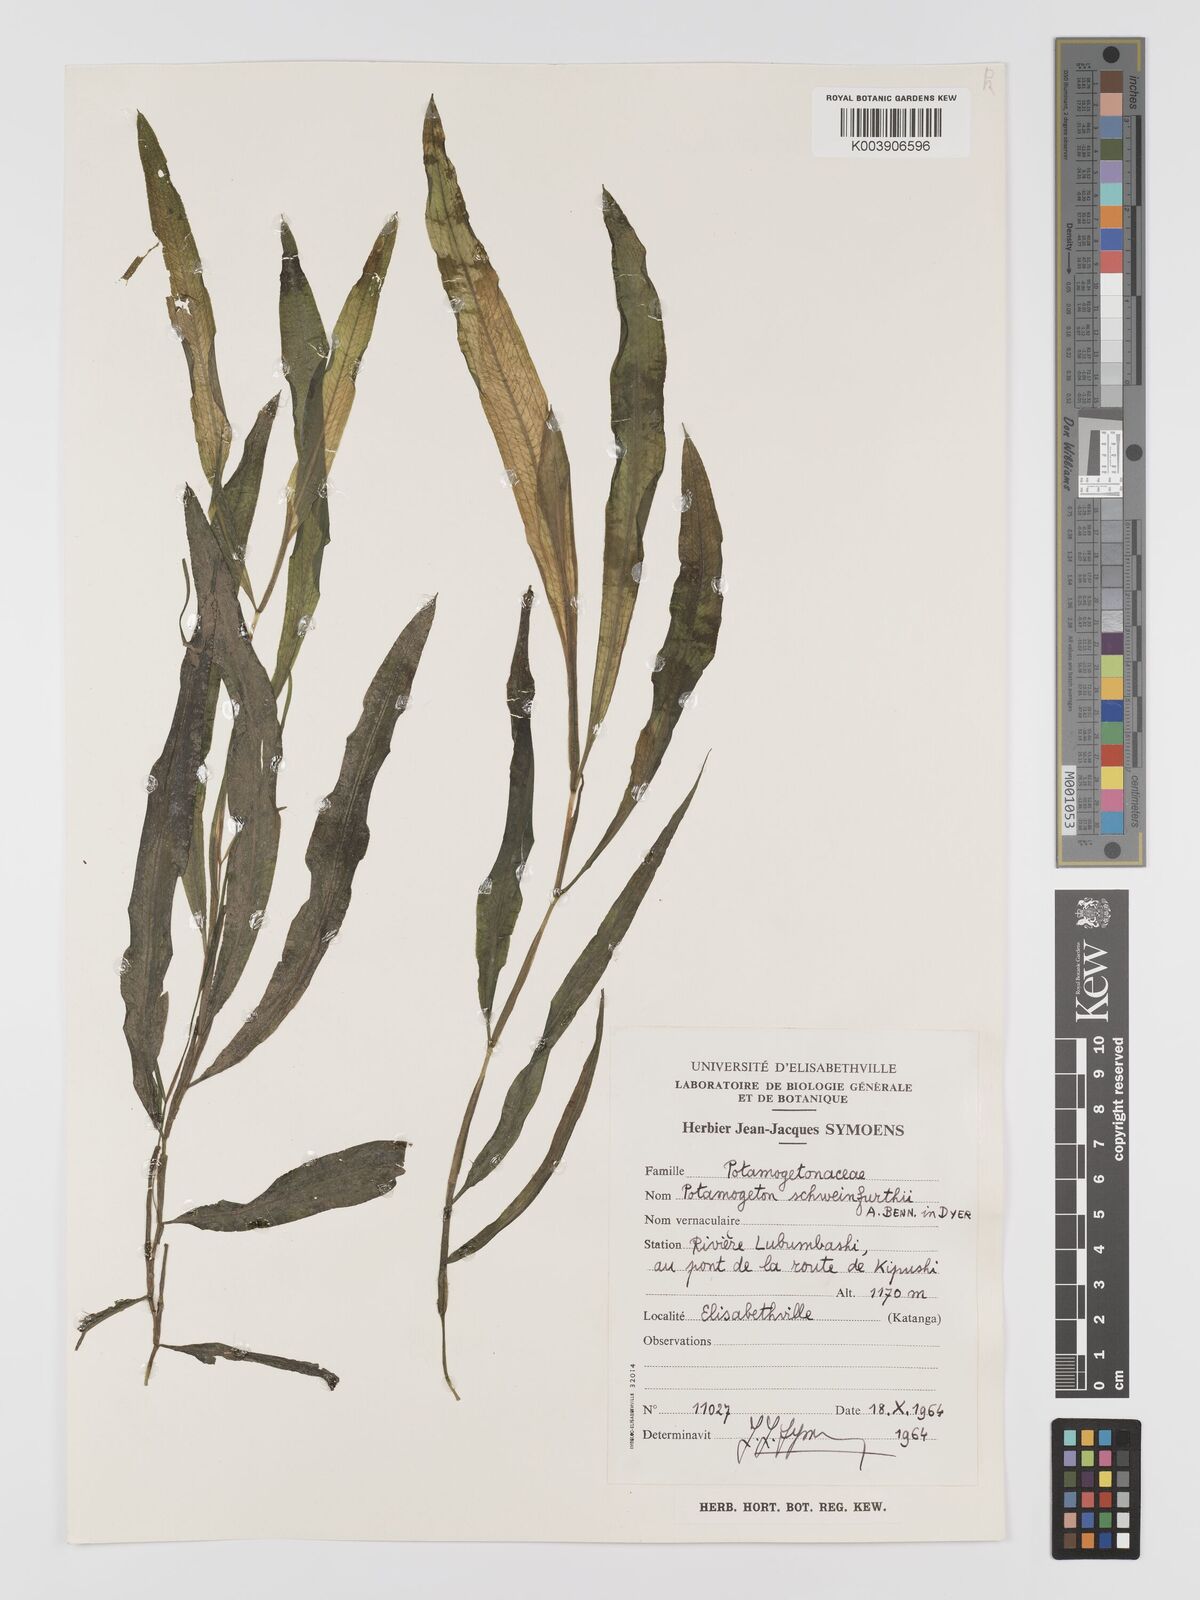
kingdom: Plantae
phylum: Tracheophyta
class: Liliopsida
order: Alismatales
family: Potamogetonaceae
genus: Potamogeton
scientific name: Potamogeton schweinfurthii
